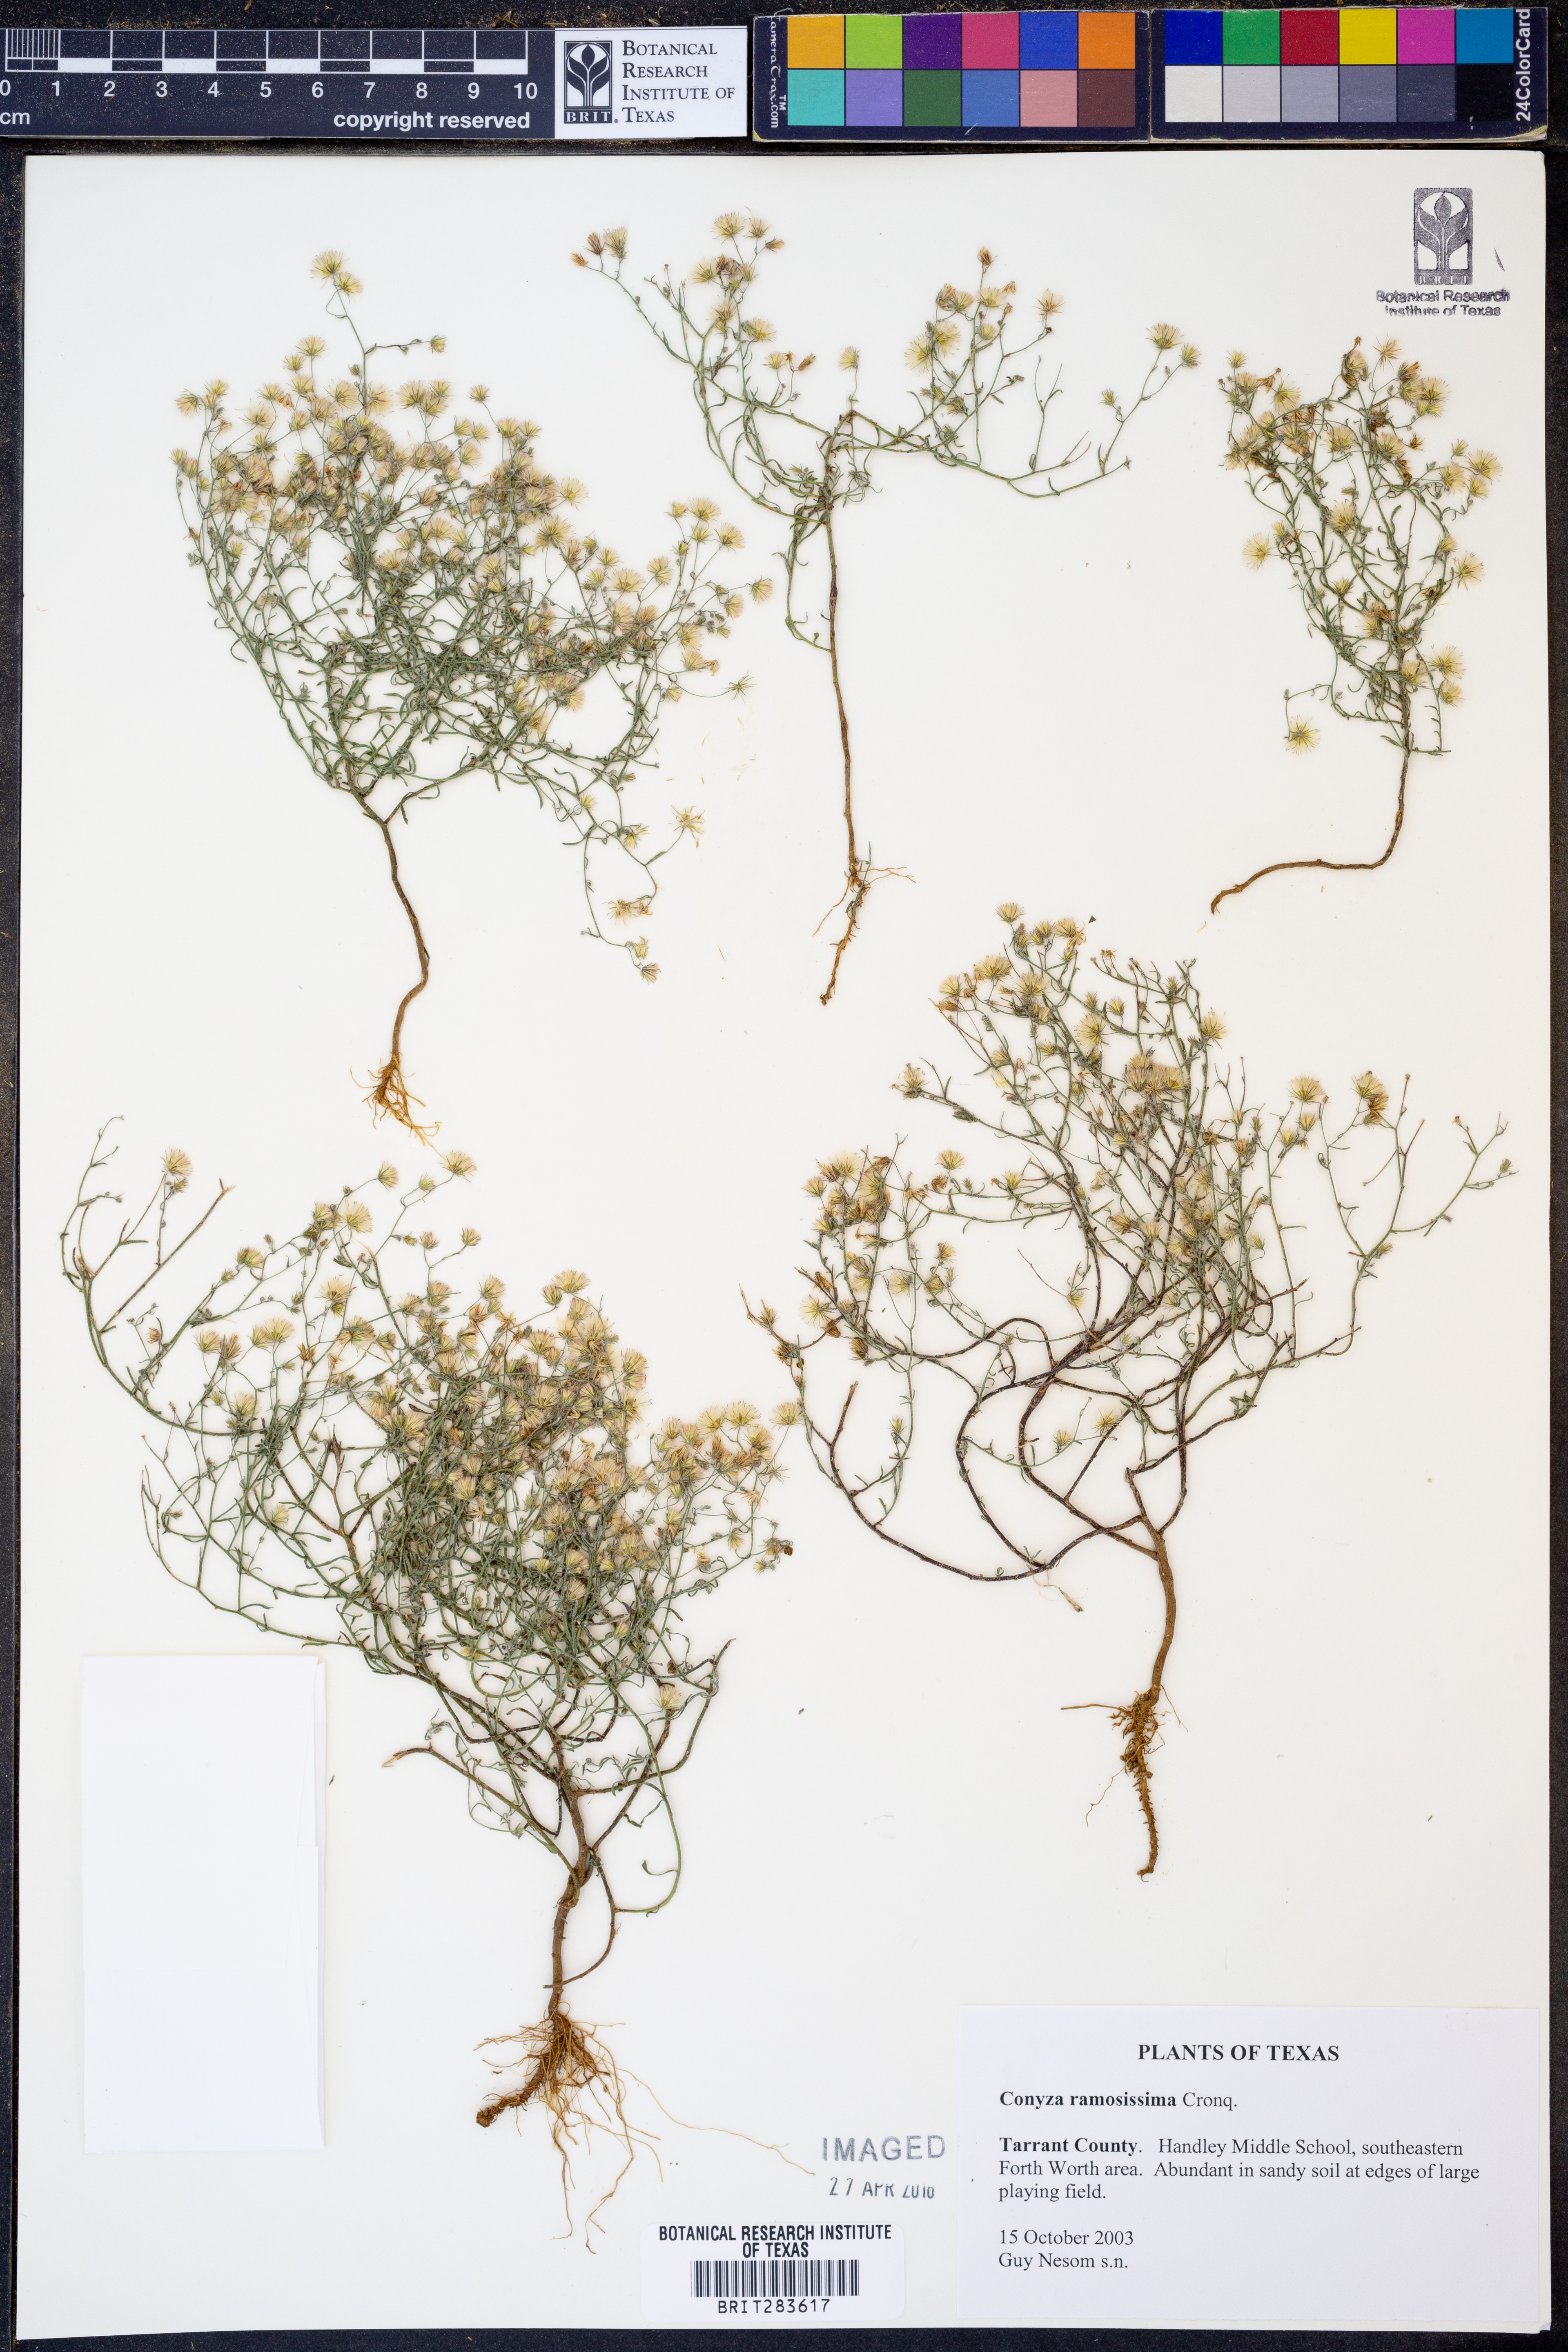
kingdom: Plantae
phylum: Tracheophyta
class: Magnoliopsida
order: Asterales
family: Asteraceae
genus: Erigeron
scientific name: Erigeron divaricatus
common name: Dwarf conyza
